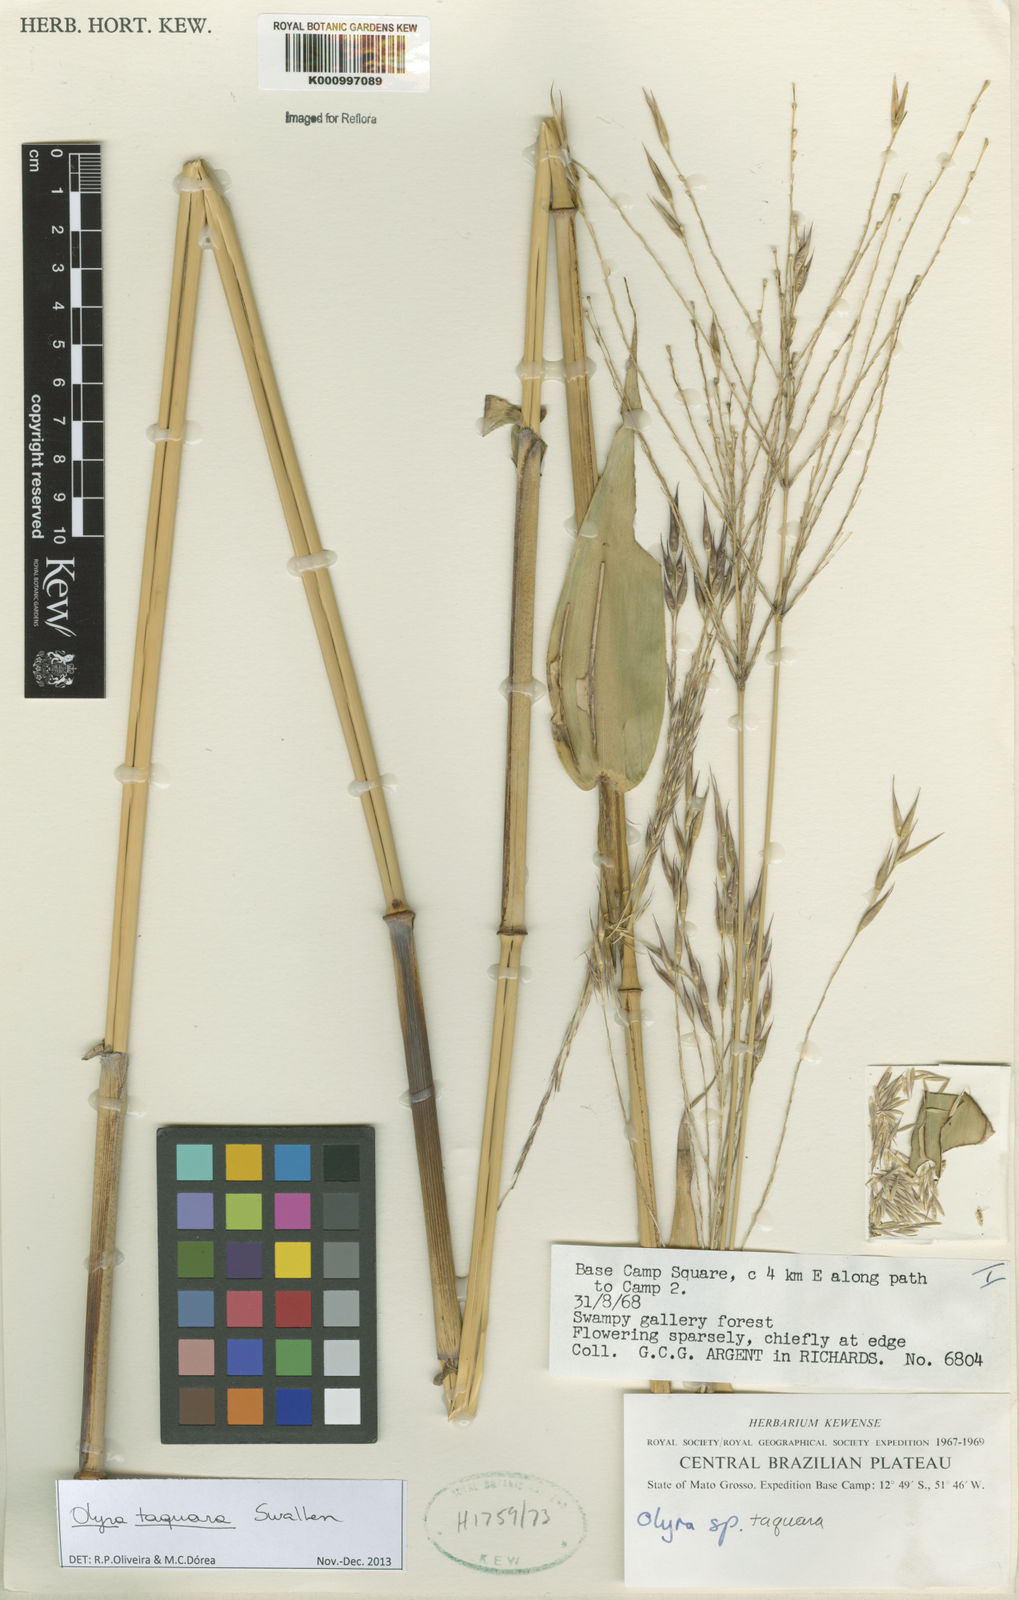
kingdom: Plantae
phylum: Tracheophyta
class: Liliopsida
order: Poales
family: Poaceae
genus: Olyra
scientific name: Olyra taquara
